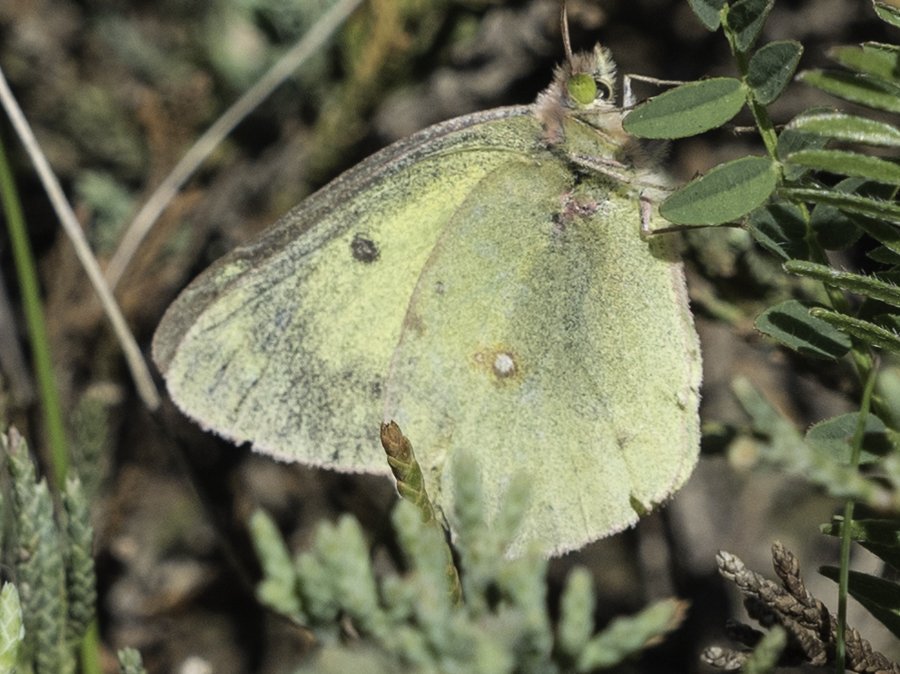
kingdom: Animalia
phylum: Arthropoda
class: Insecta
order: Lepidoptera
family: Pieridae
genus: Colias
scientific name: Colias philodice
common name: Clouded Sulphur
